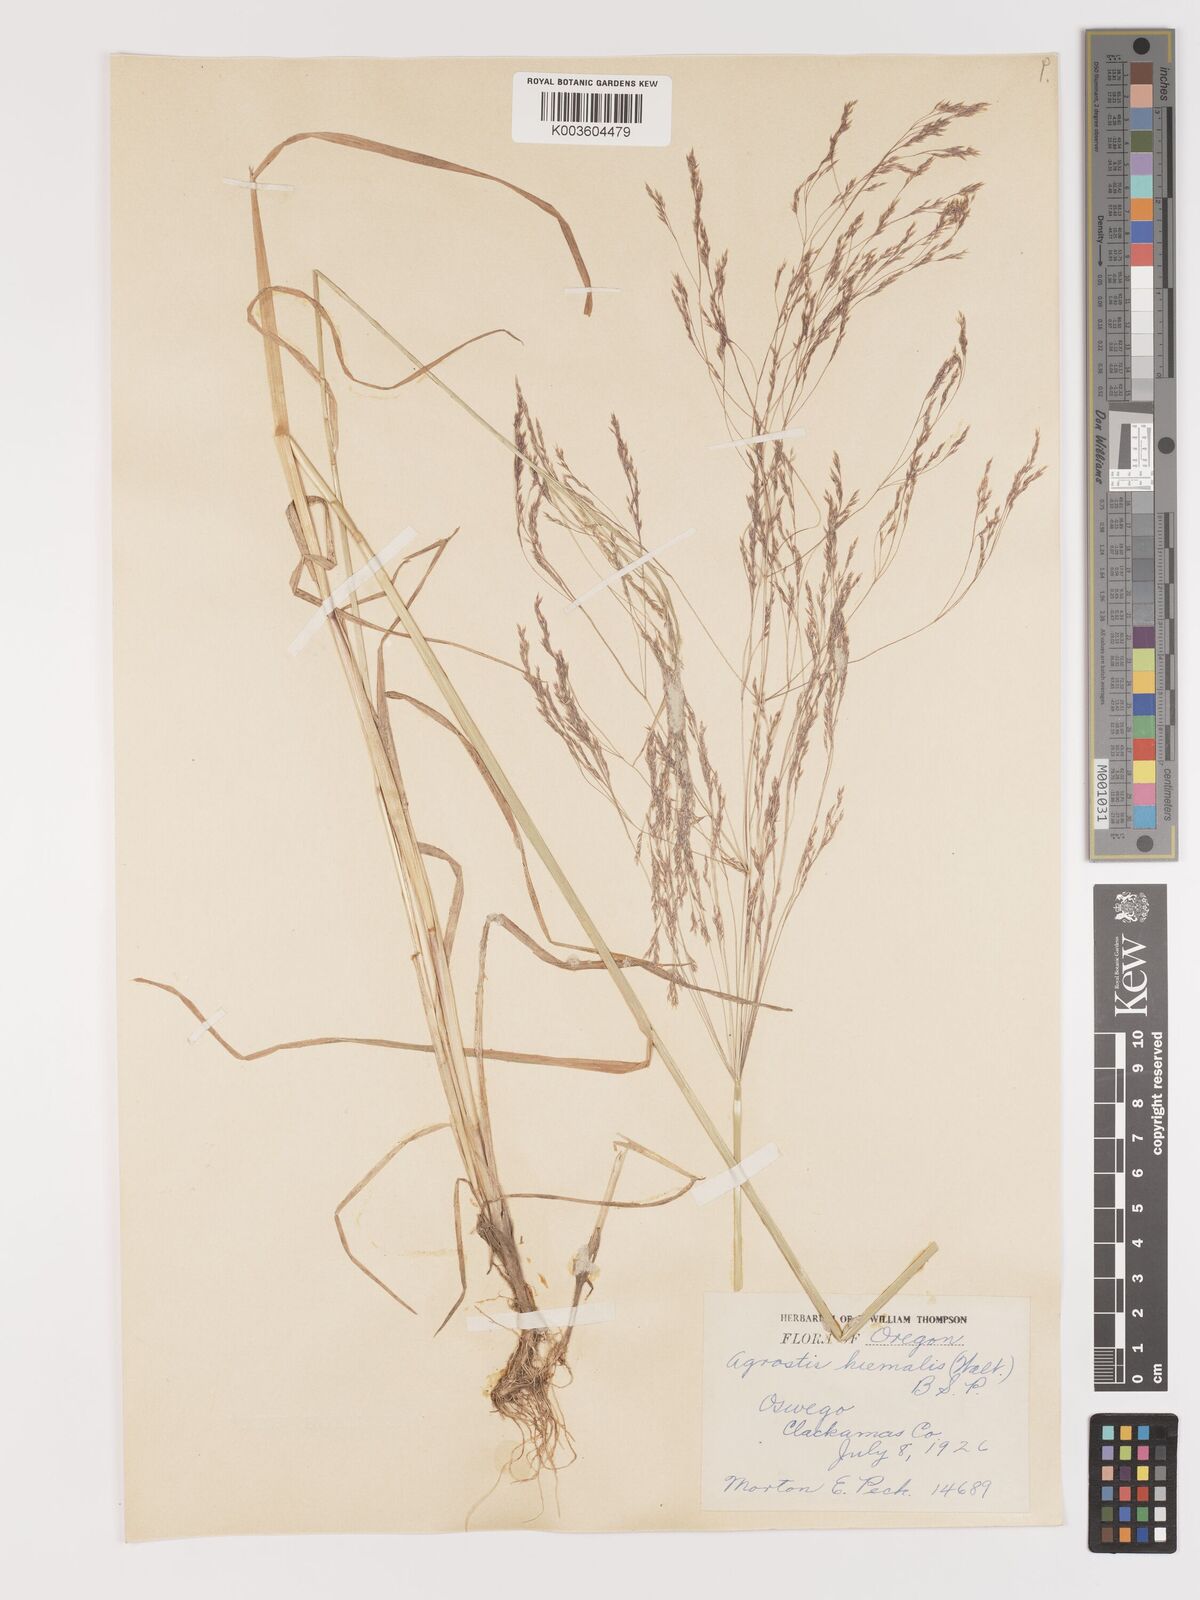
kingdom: Plantae
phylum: Tracheophyta
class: Liliopsida
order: Poales
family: Poaceae
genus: Agrostis
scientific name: Agrostis hyemalis
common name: Small bent
